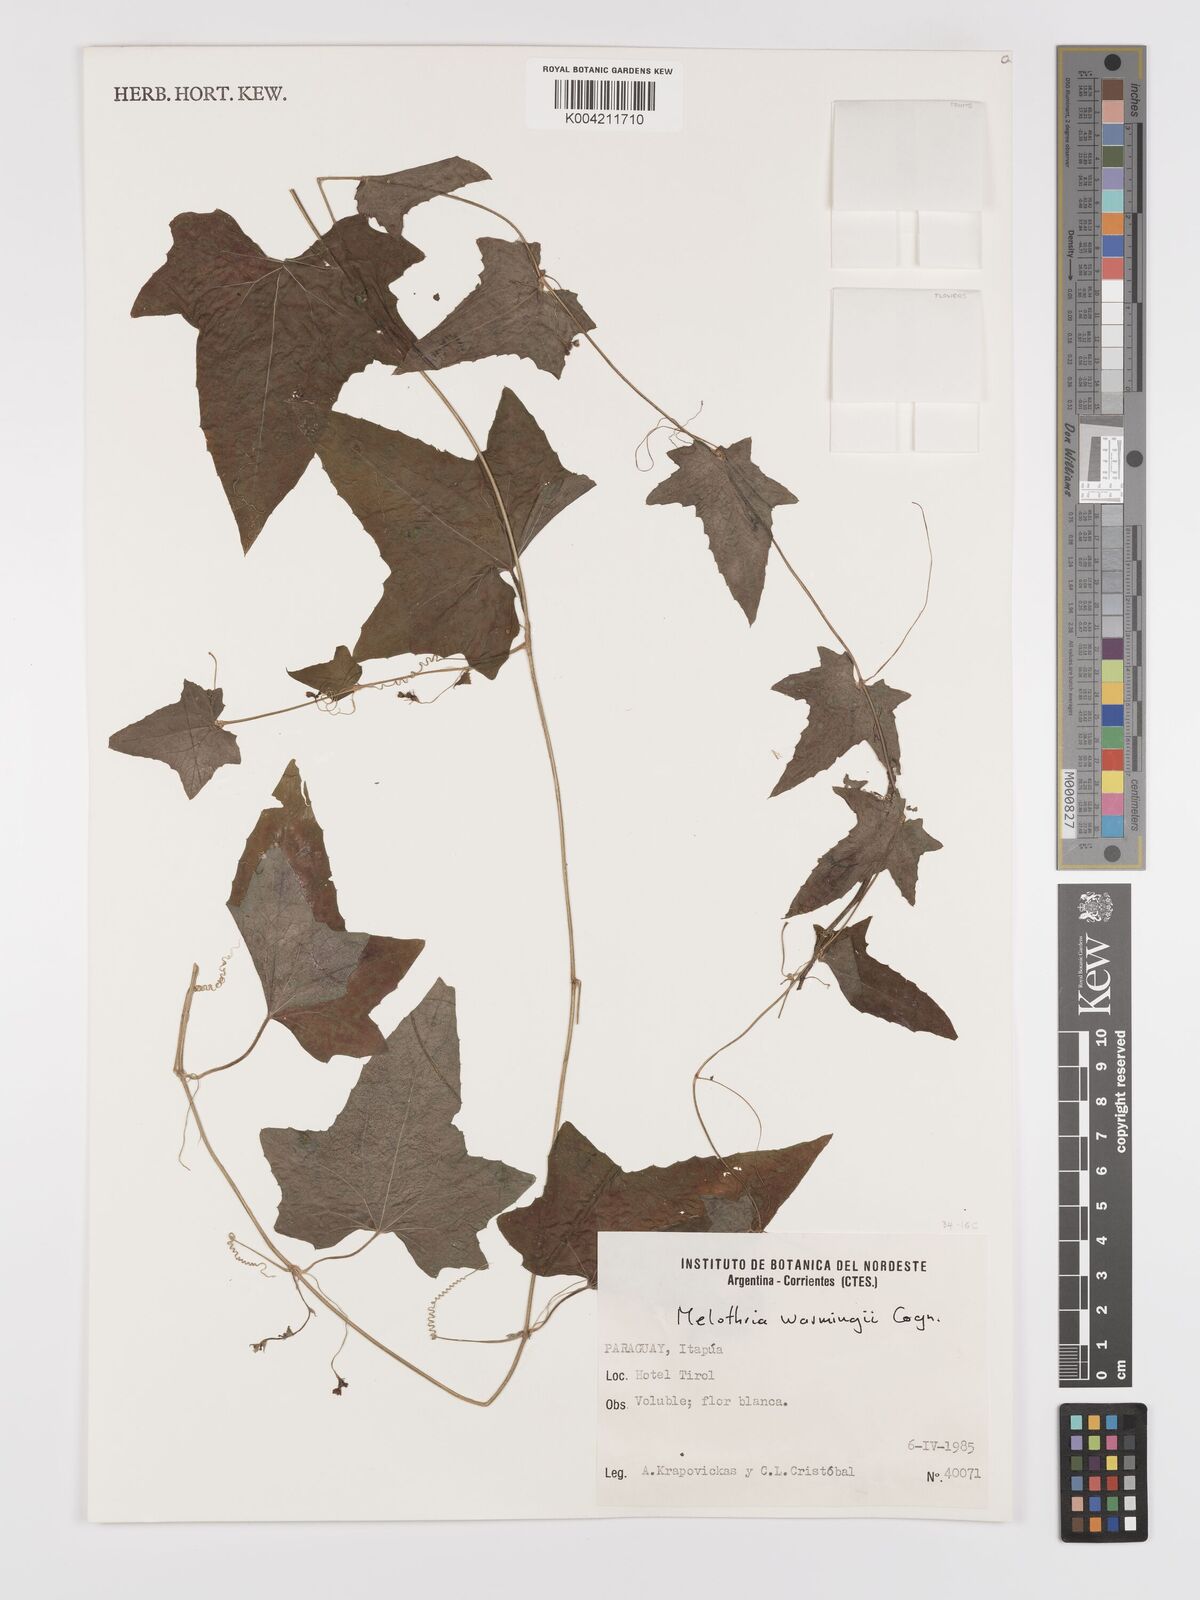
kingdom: Plantae
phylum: Tracheophyta
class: Magnoliopsida
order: Cucurbitales
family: Cucurbitaceae
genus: Melothria
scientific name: Melothria warmingii
